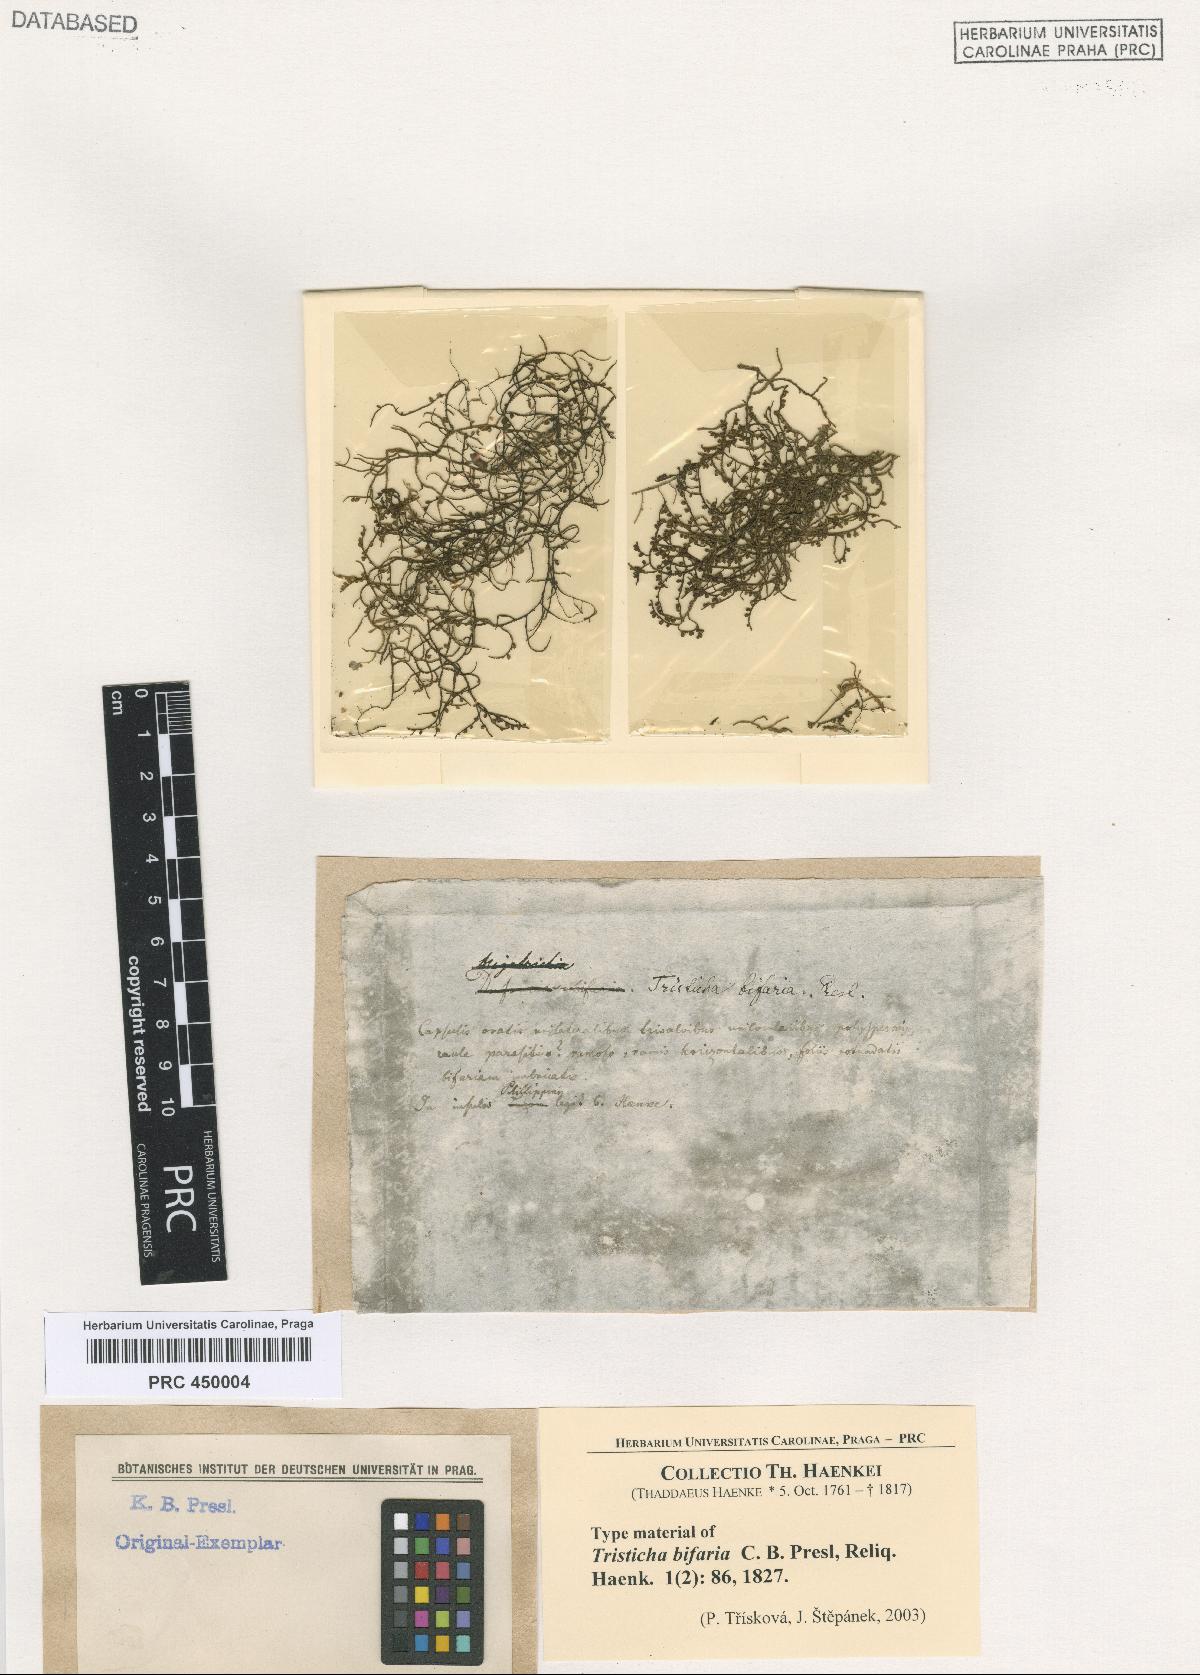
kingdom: Plantae
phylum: Tracheophyta
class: Magnoliopsida
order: Malpighiales
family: Podostemaceae
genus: Tristicha
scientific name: Tristicha bifaria
